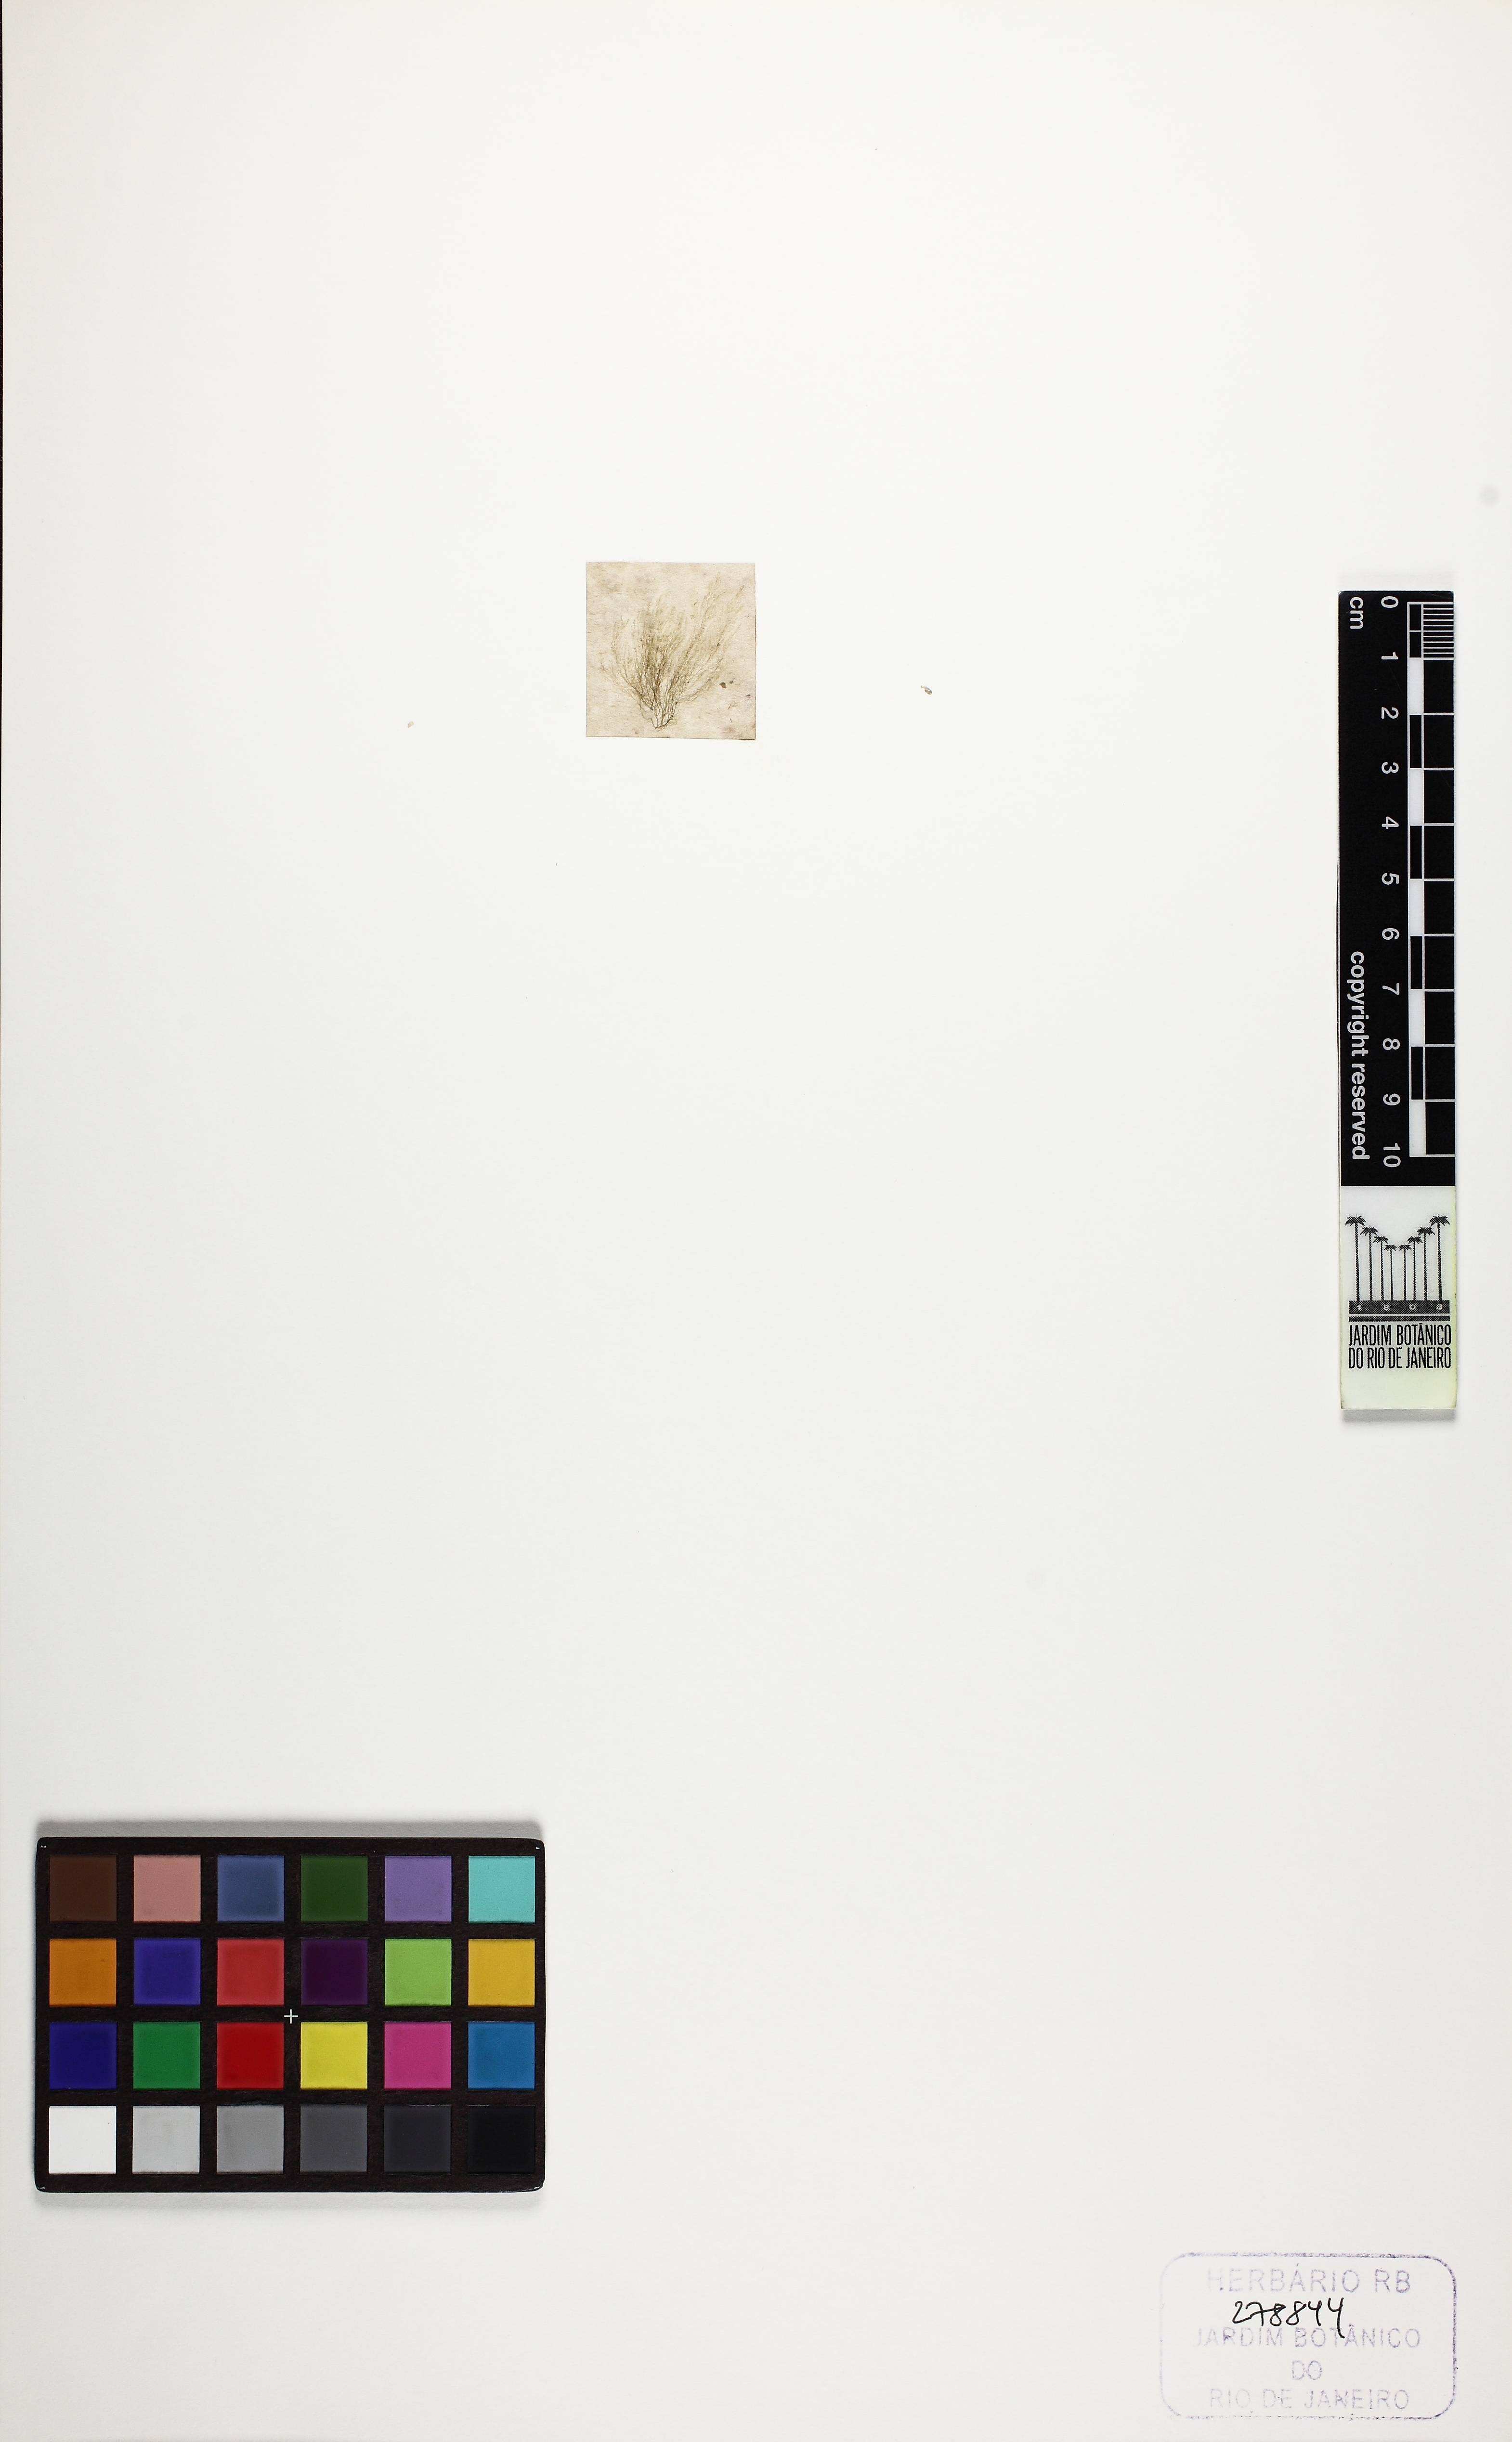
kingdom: Plantae
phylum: Rhodophyta
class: Florideophyceae
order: Ceramiales
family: Callithamniaceae
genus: Callithamnion
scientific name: Callithamnion pedicellatum
